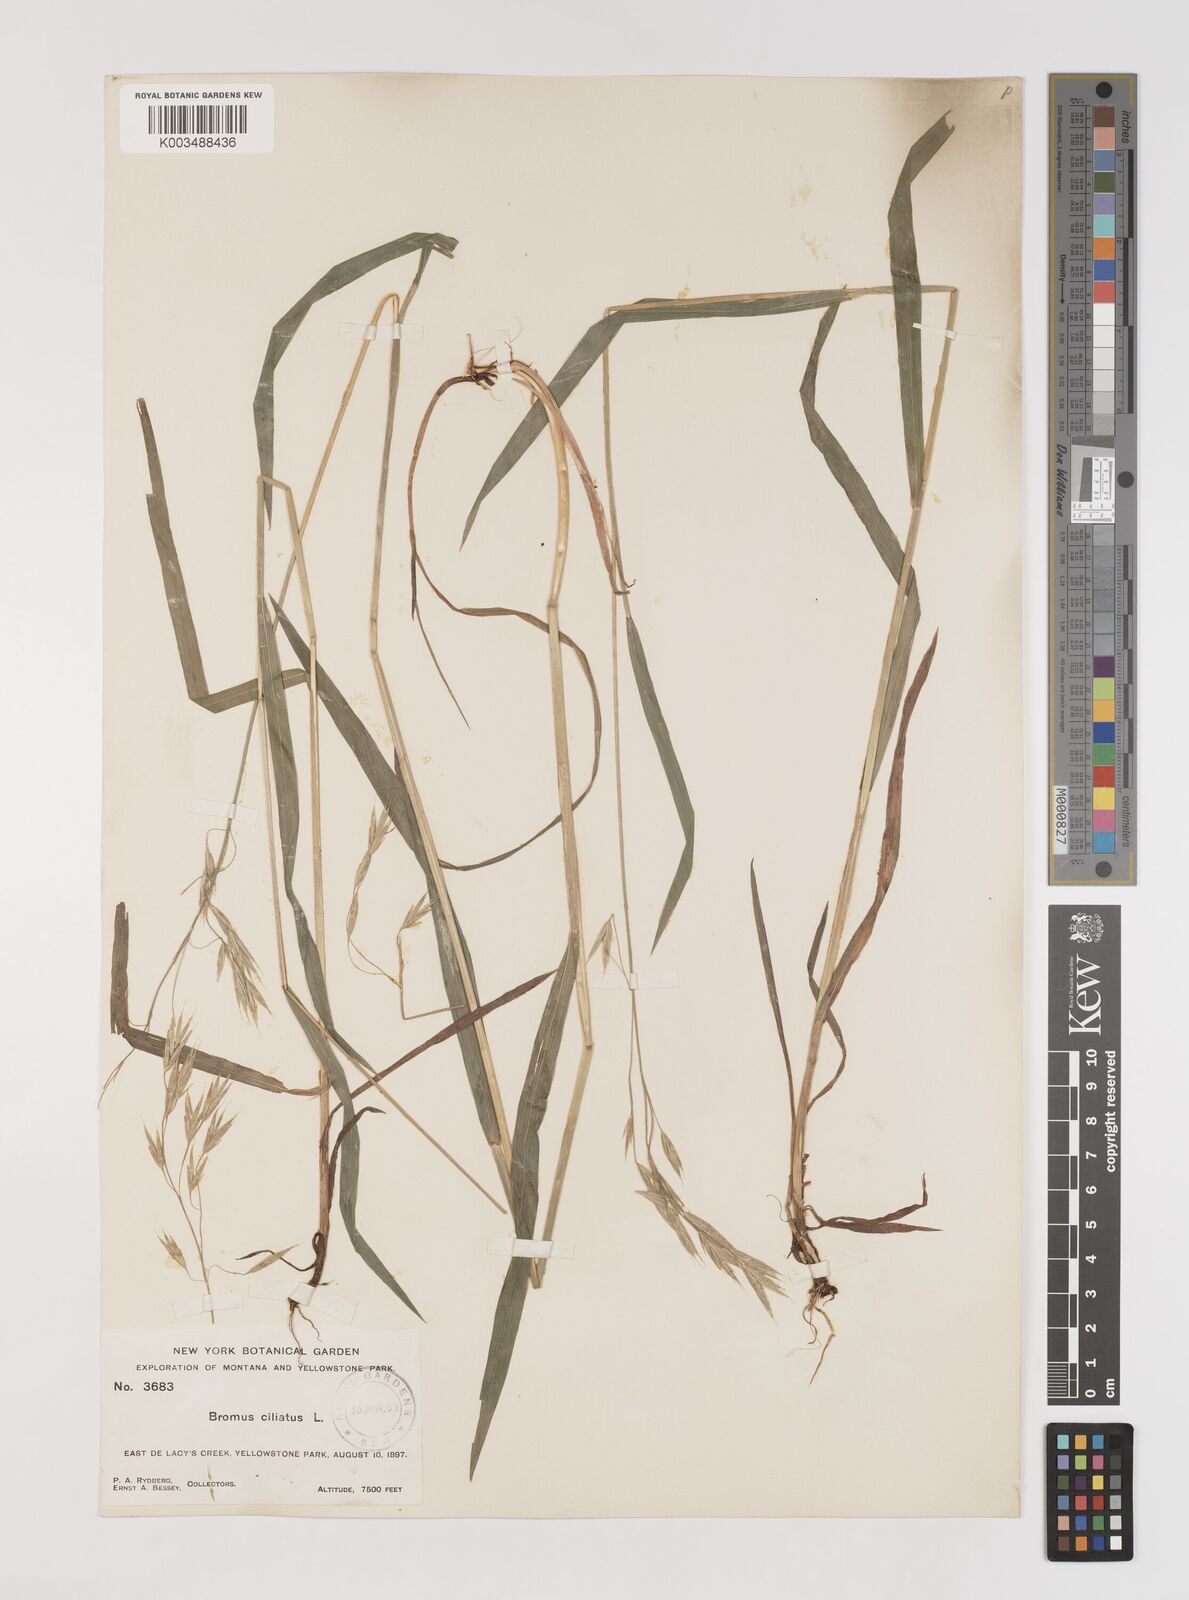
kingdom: Plantae
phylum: Tracheophyta
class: Liliopsida
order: Poales
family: Poaceae
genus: Bromus
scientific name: Bromus ciliatus
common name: Fringe brome
